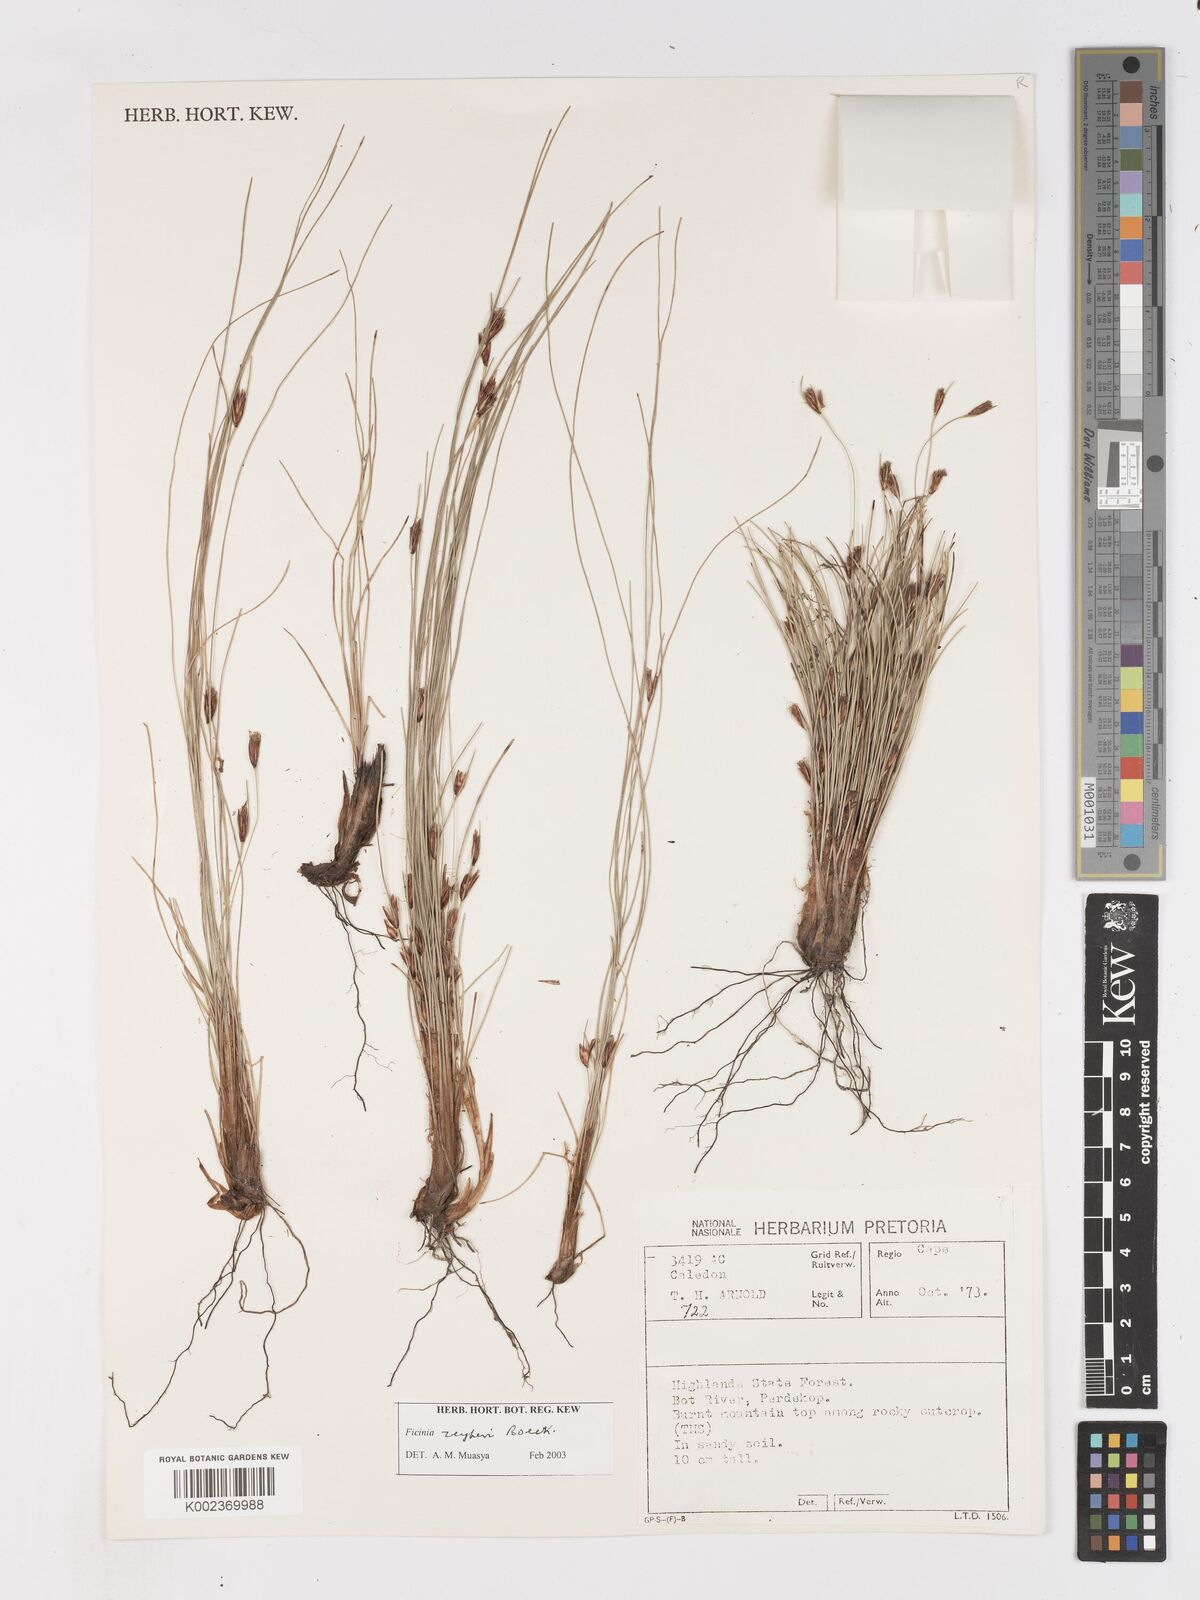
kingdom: Plantae
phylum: Tracheophyta
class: Liliopsida
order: Poales
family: Cyperaceae
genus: Ficinia
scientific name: Ficinia zeyheri
